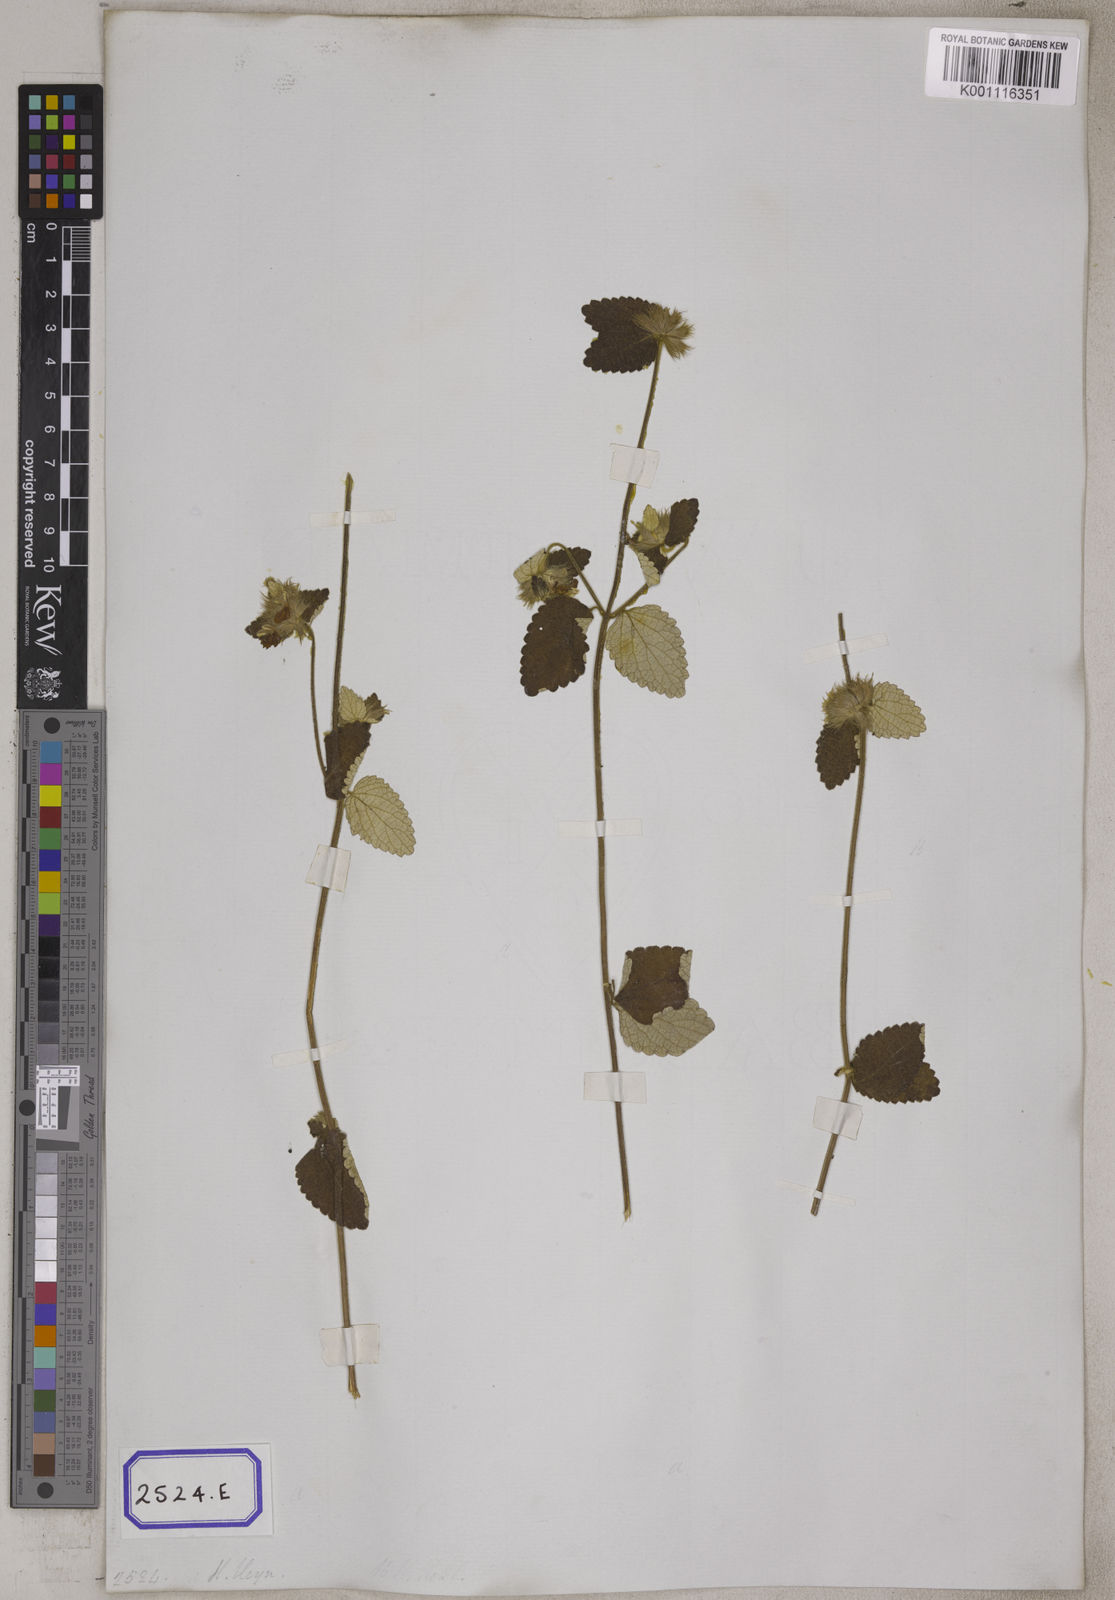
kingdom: Plantae
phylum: Tracheophyta
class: Magnoliopsida
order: Lamiales
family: Lamiaceae
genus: Leucas
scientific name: Leucas marrubioides
